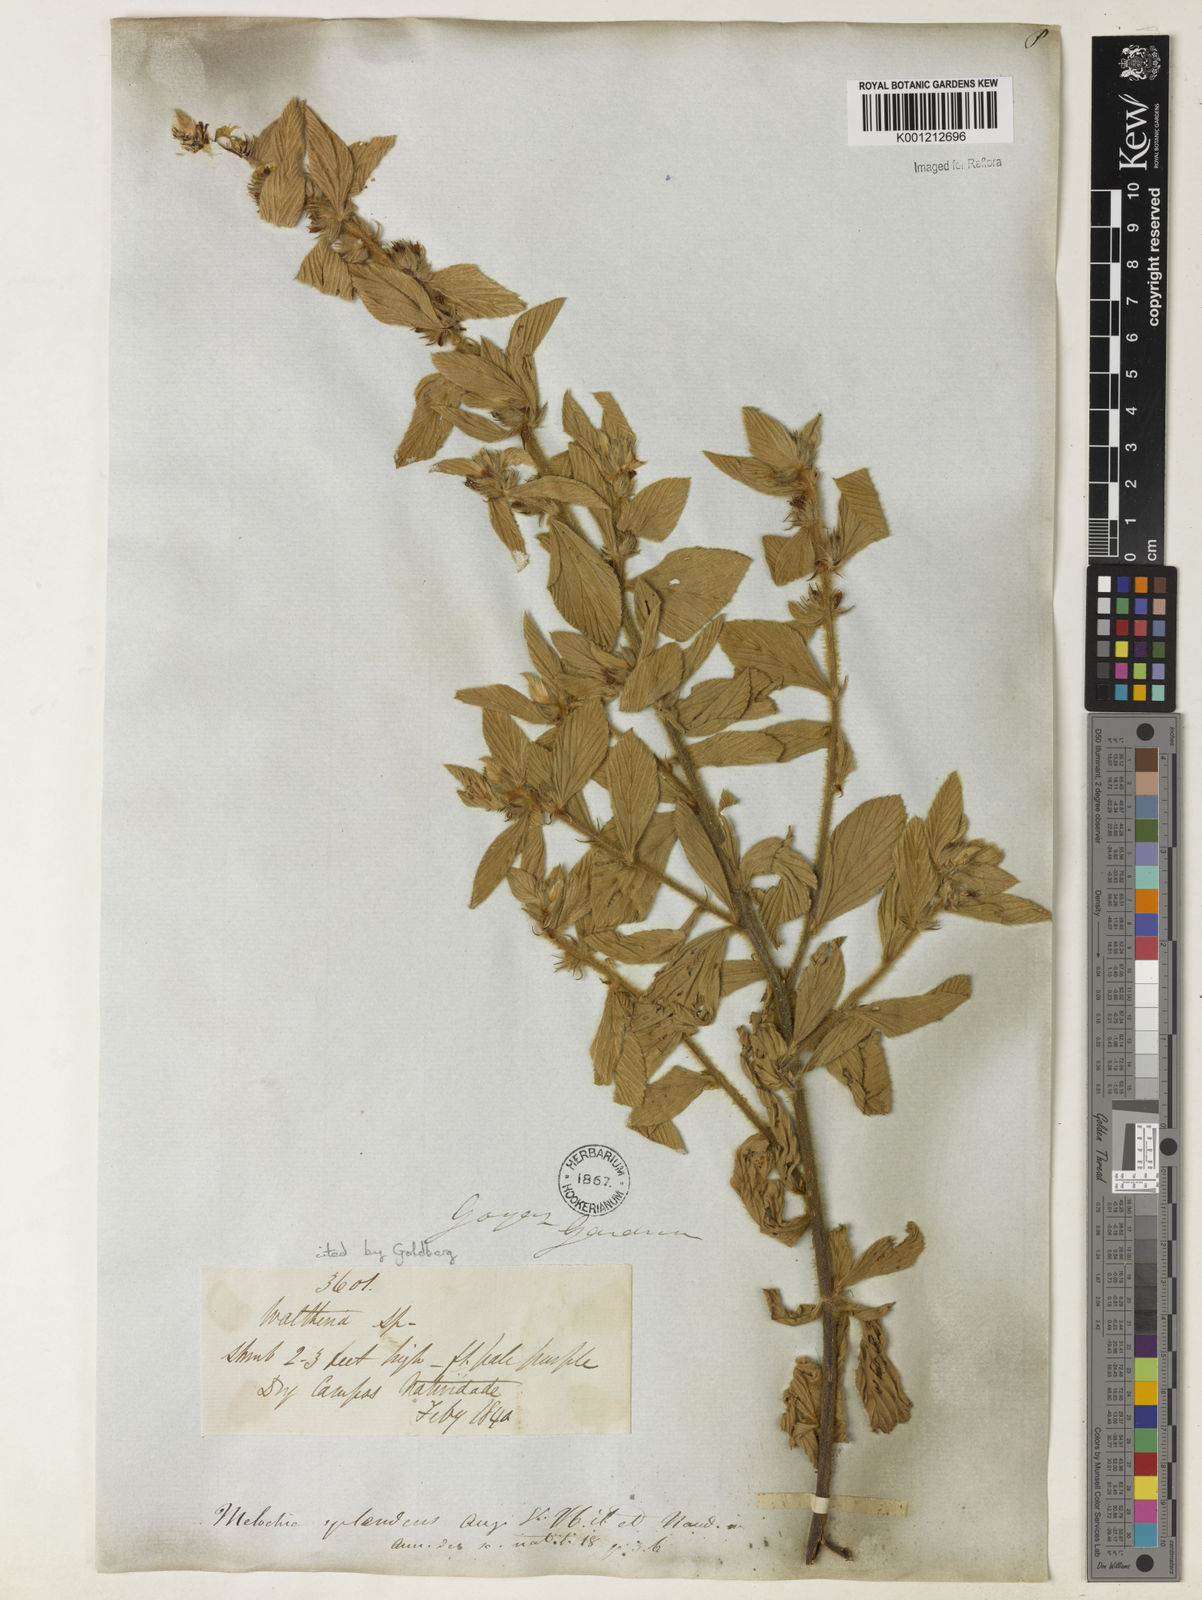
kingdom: Plantae
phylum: Tracheophyta
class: Magnoliopsida
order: Malvales
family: Malvaceae
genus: Melochia
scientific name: Melochia splendens
